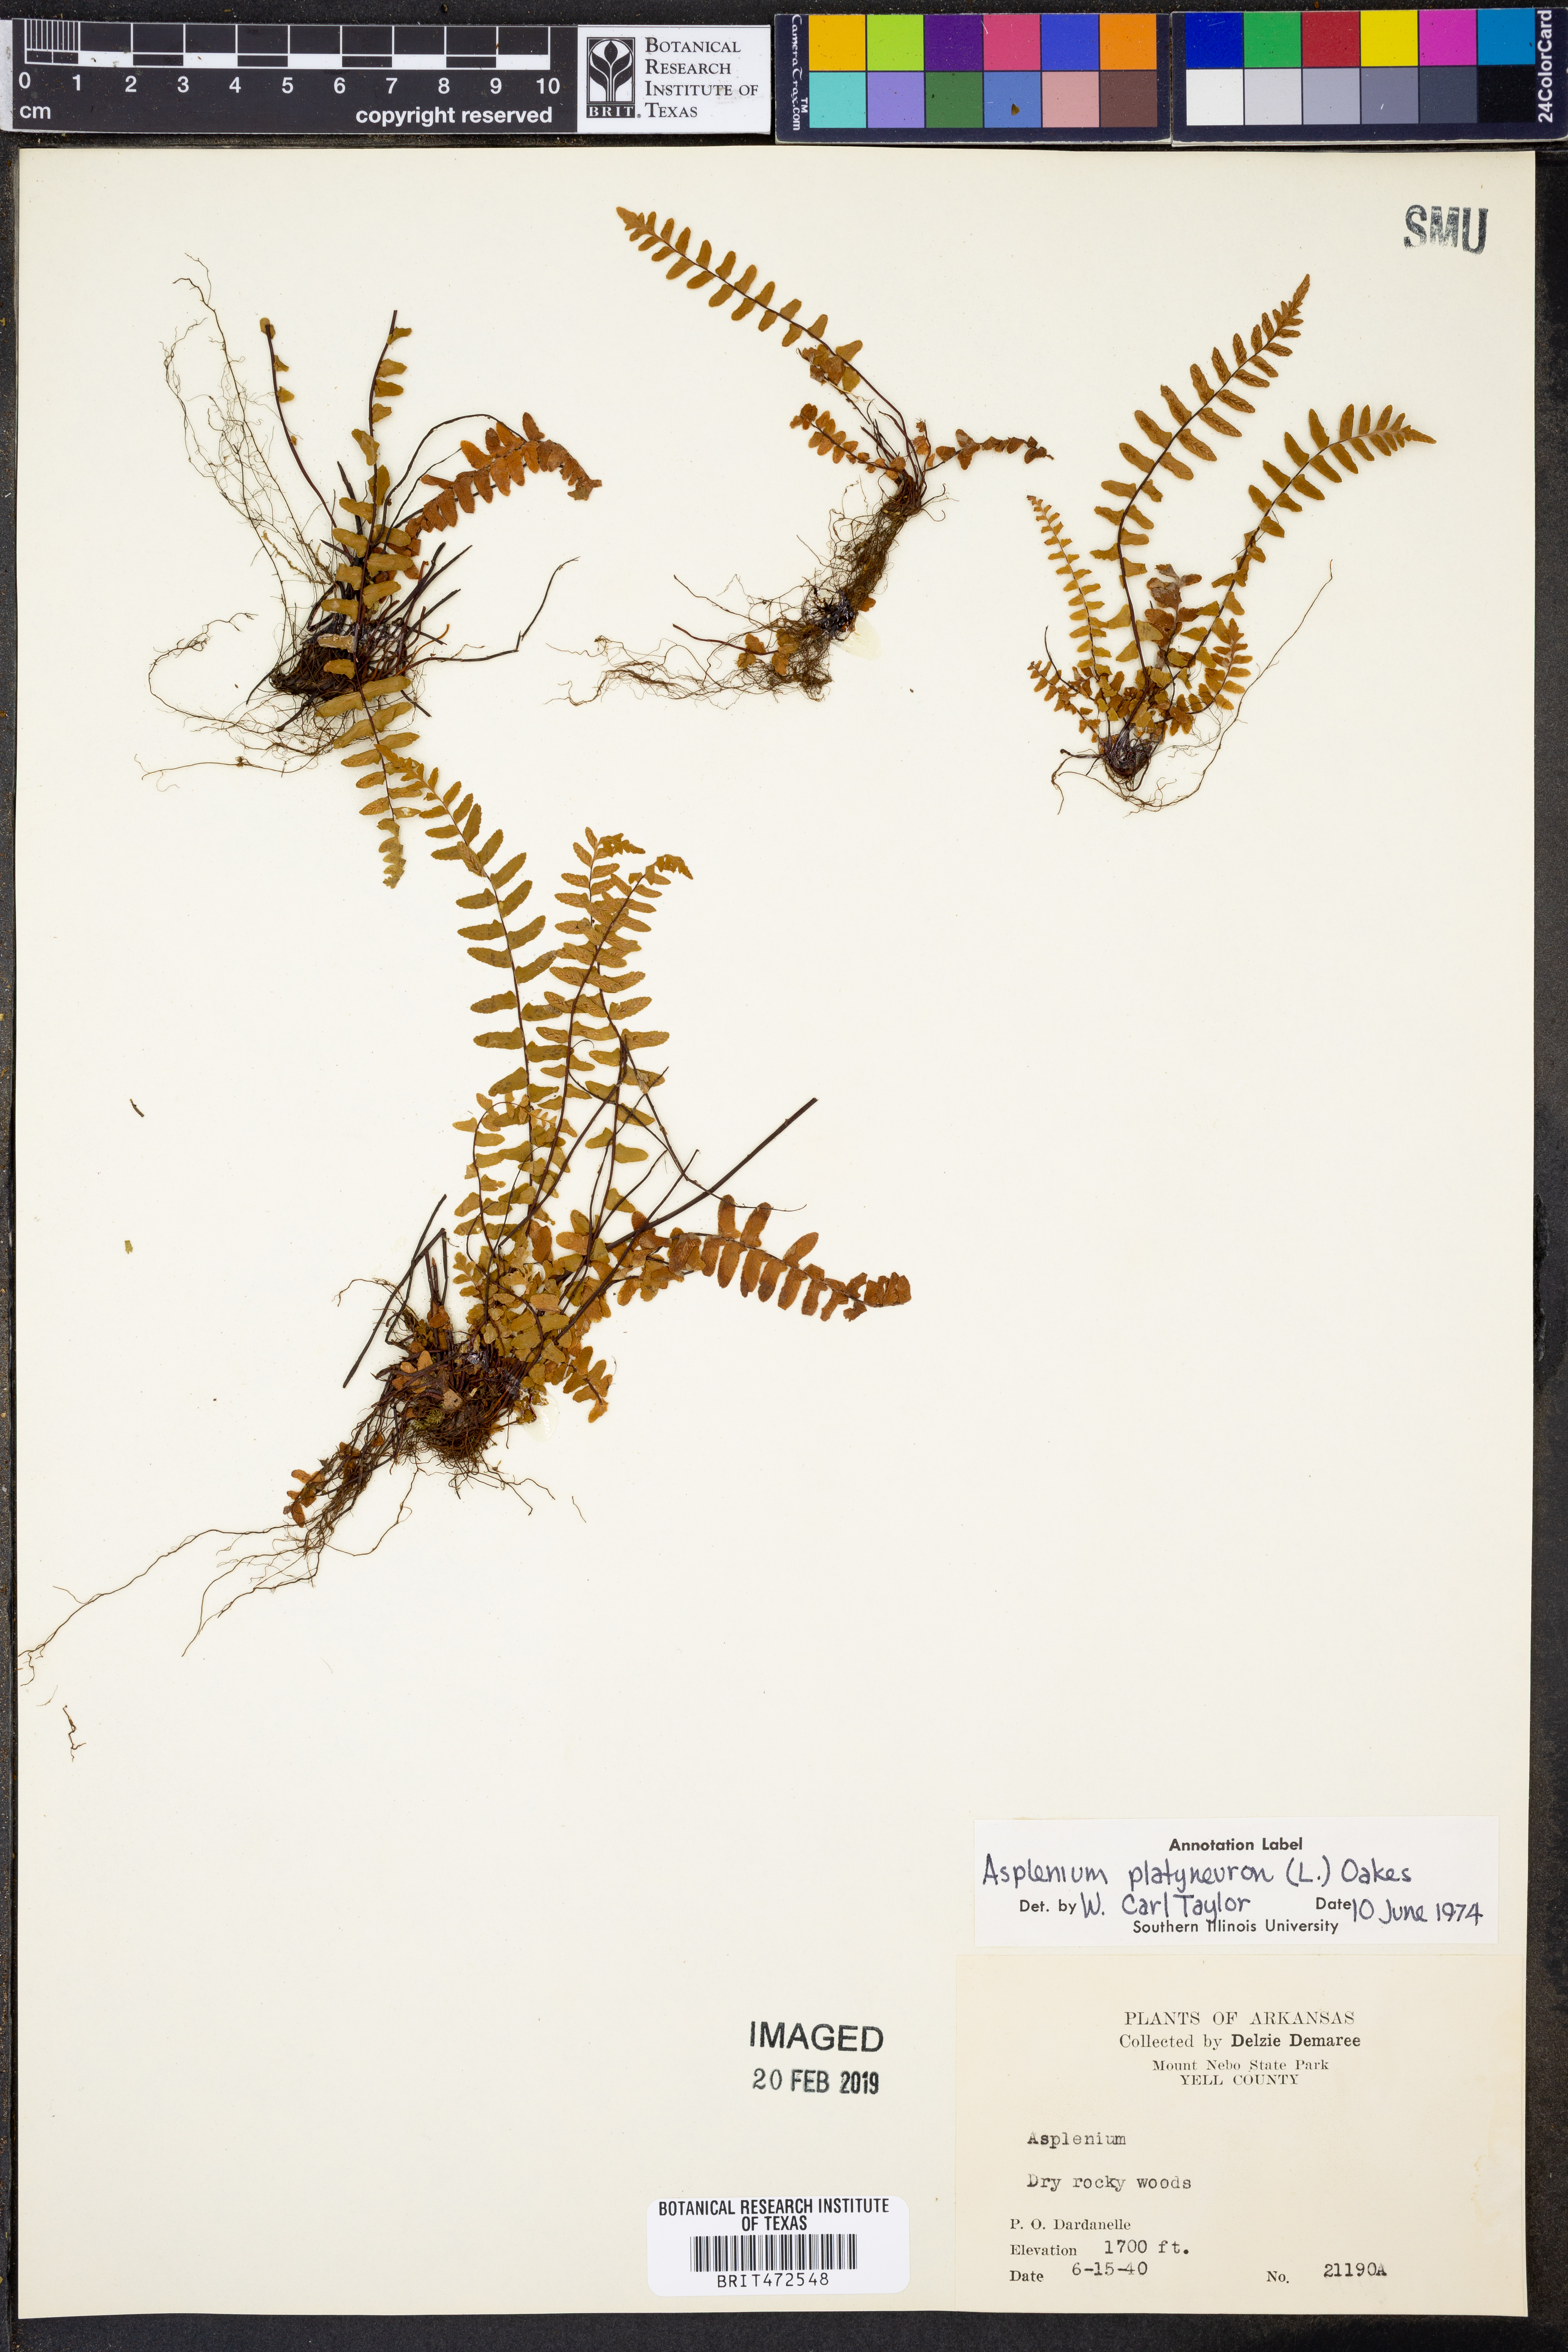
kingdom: Plantae
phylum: Tracheophyta
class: Polypodiopsida
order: Polypodiales
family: Aspleniaceae
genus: Asplenium
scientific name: Asplenium platyneuron
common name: Ebony spleenwort
